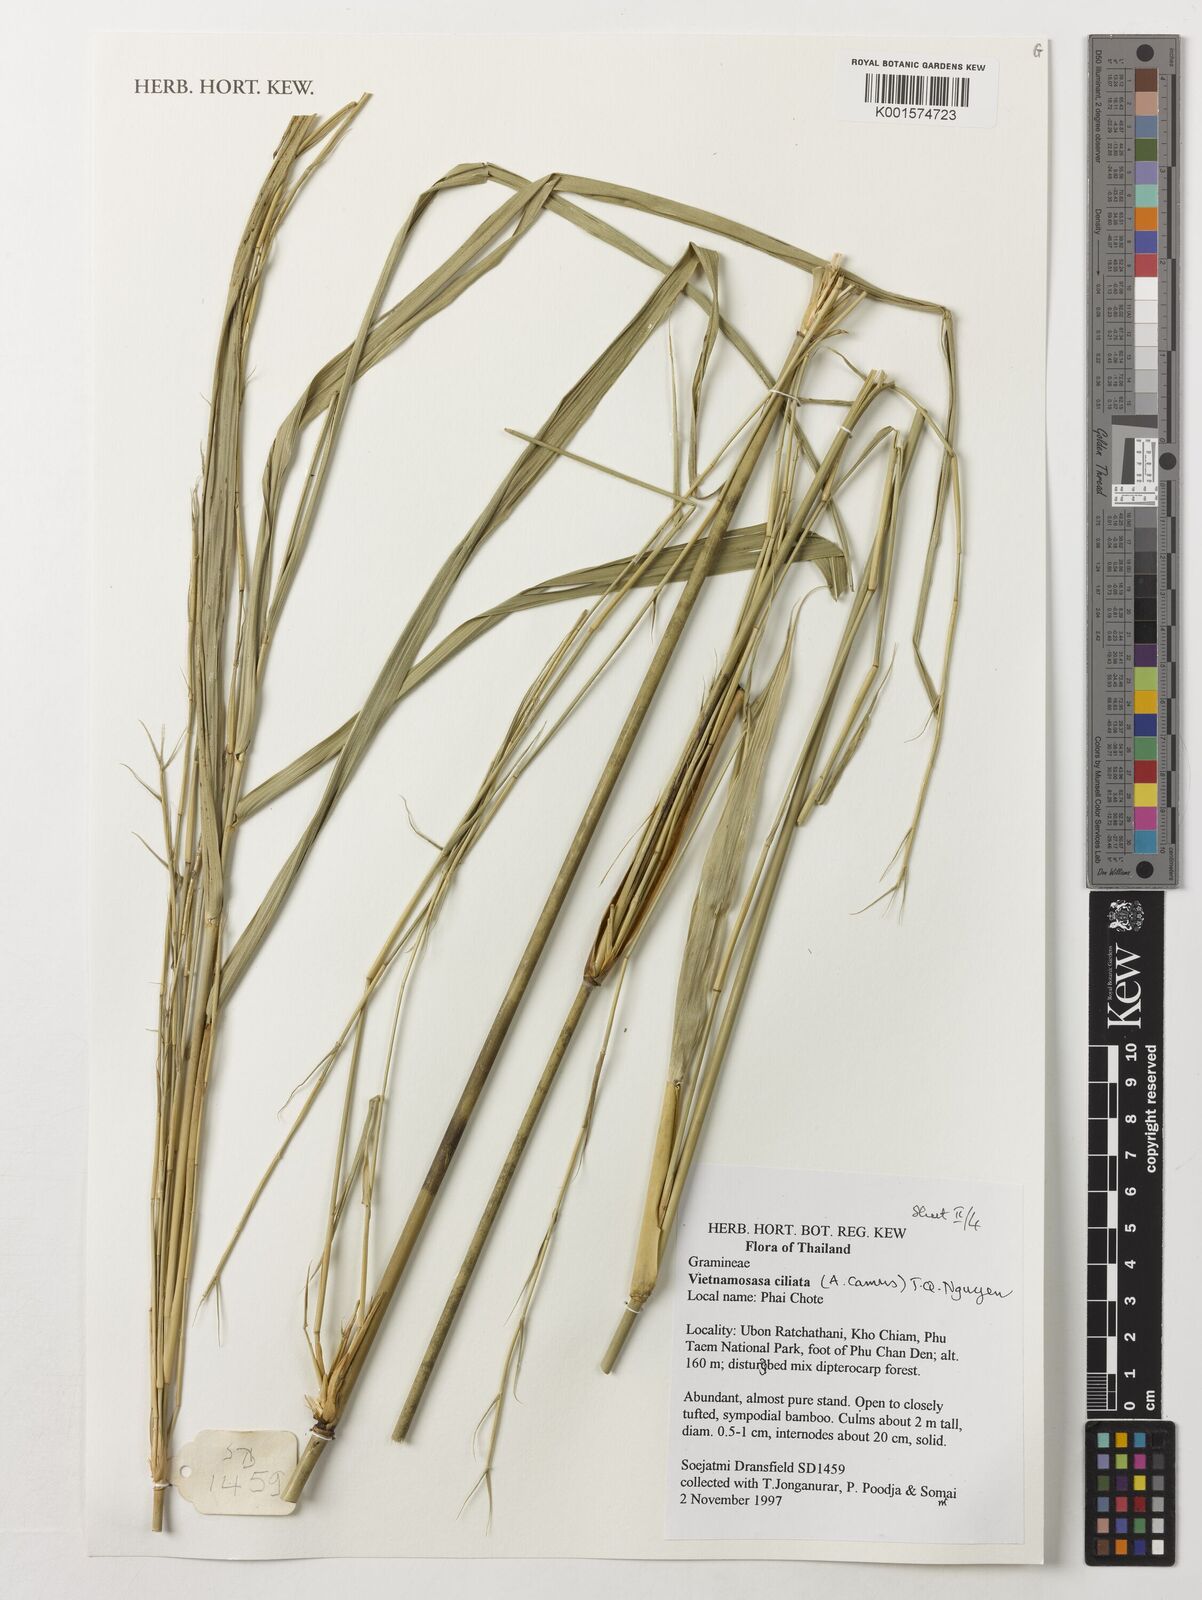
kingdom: Plantae
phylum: Tracheophyta
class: Liliopsida
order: Poales
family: Poaceae
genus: Vietnamosasa
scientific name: Vietnamosasa ciliata
